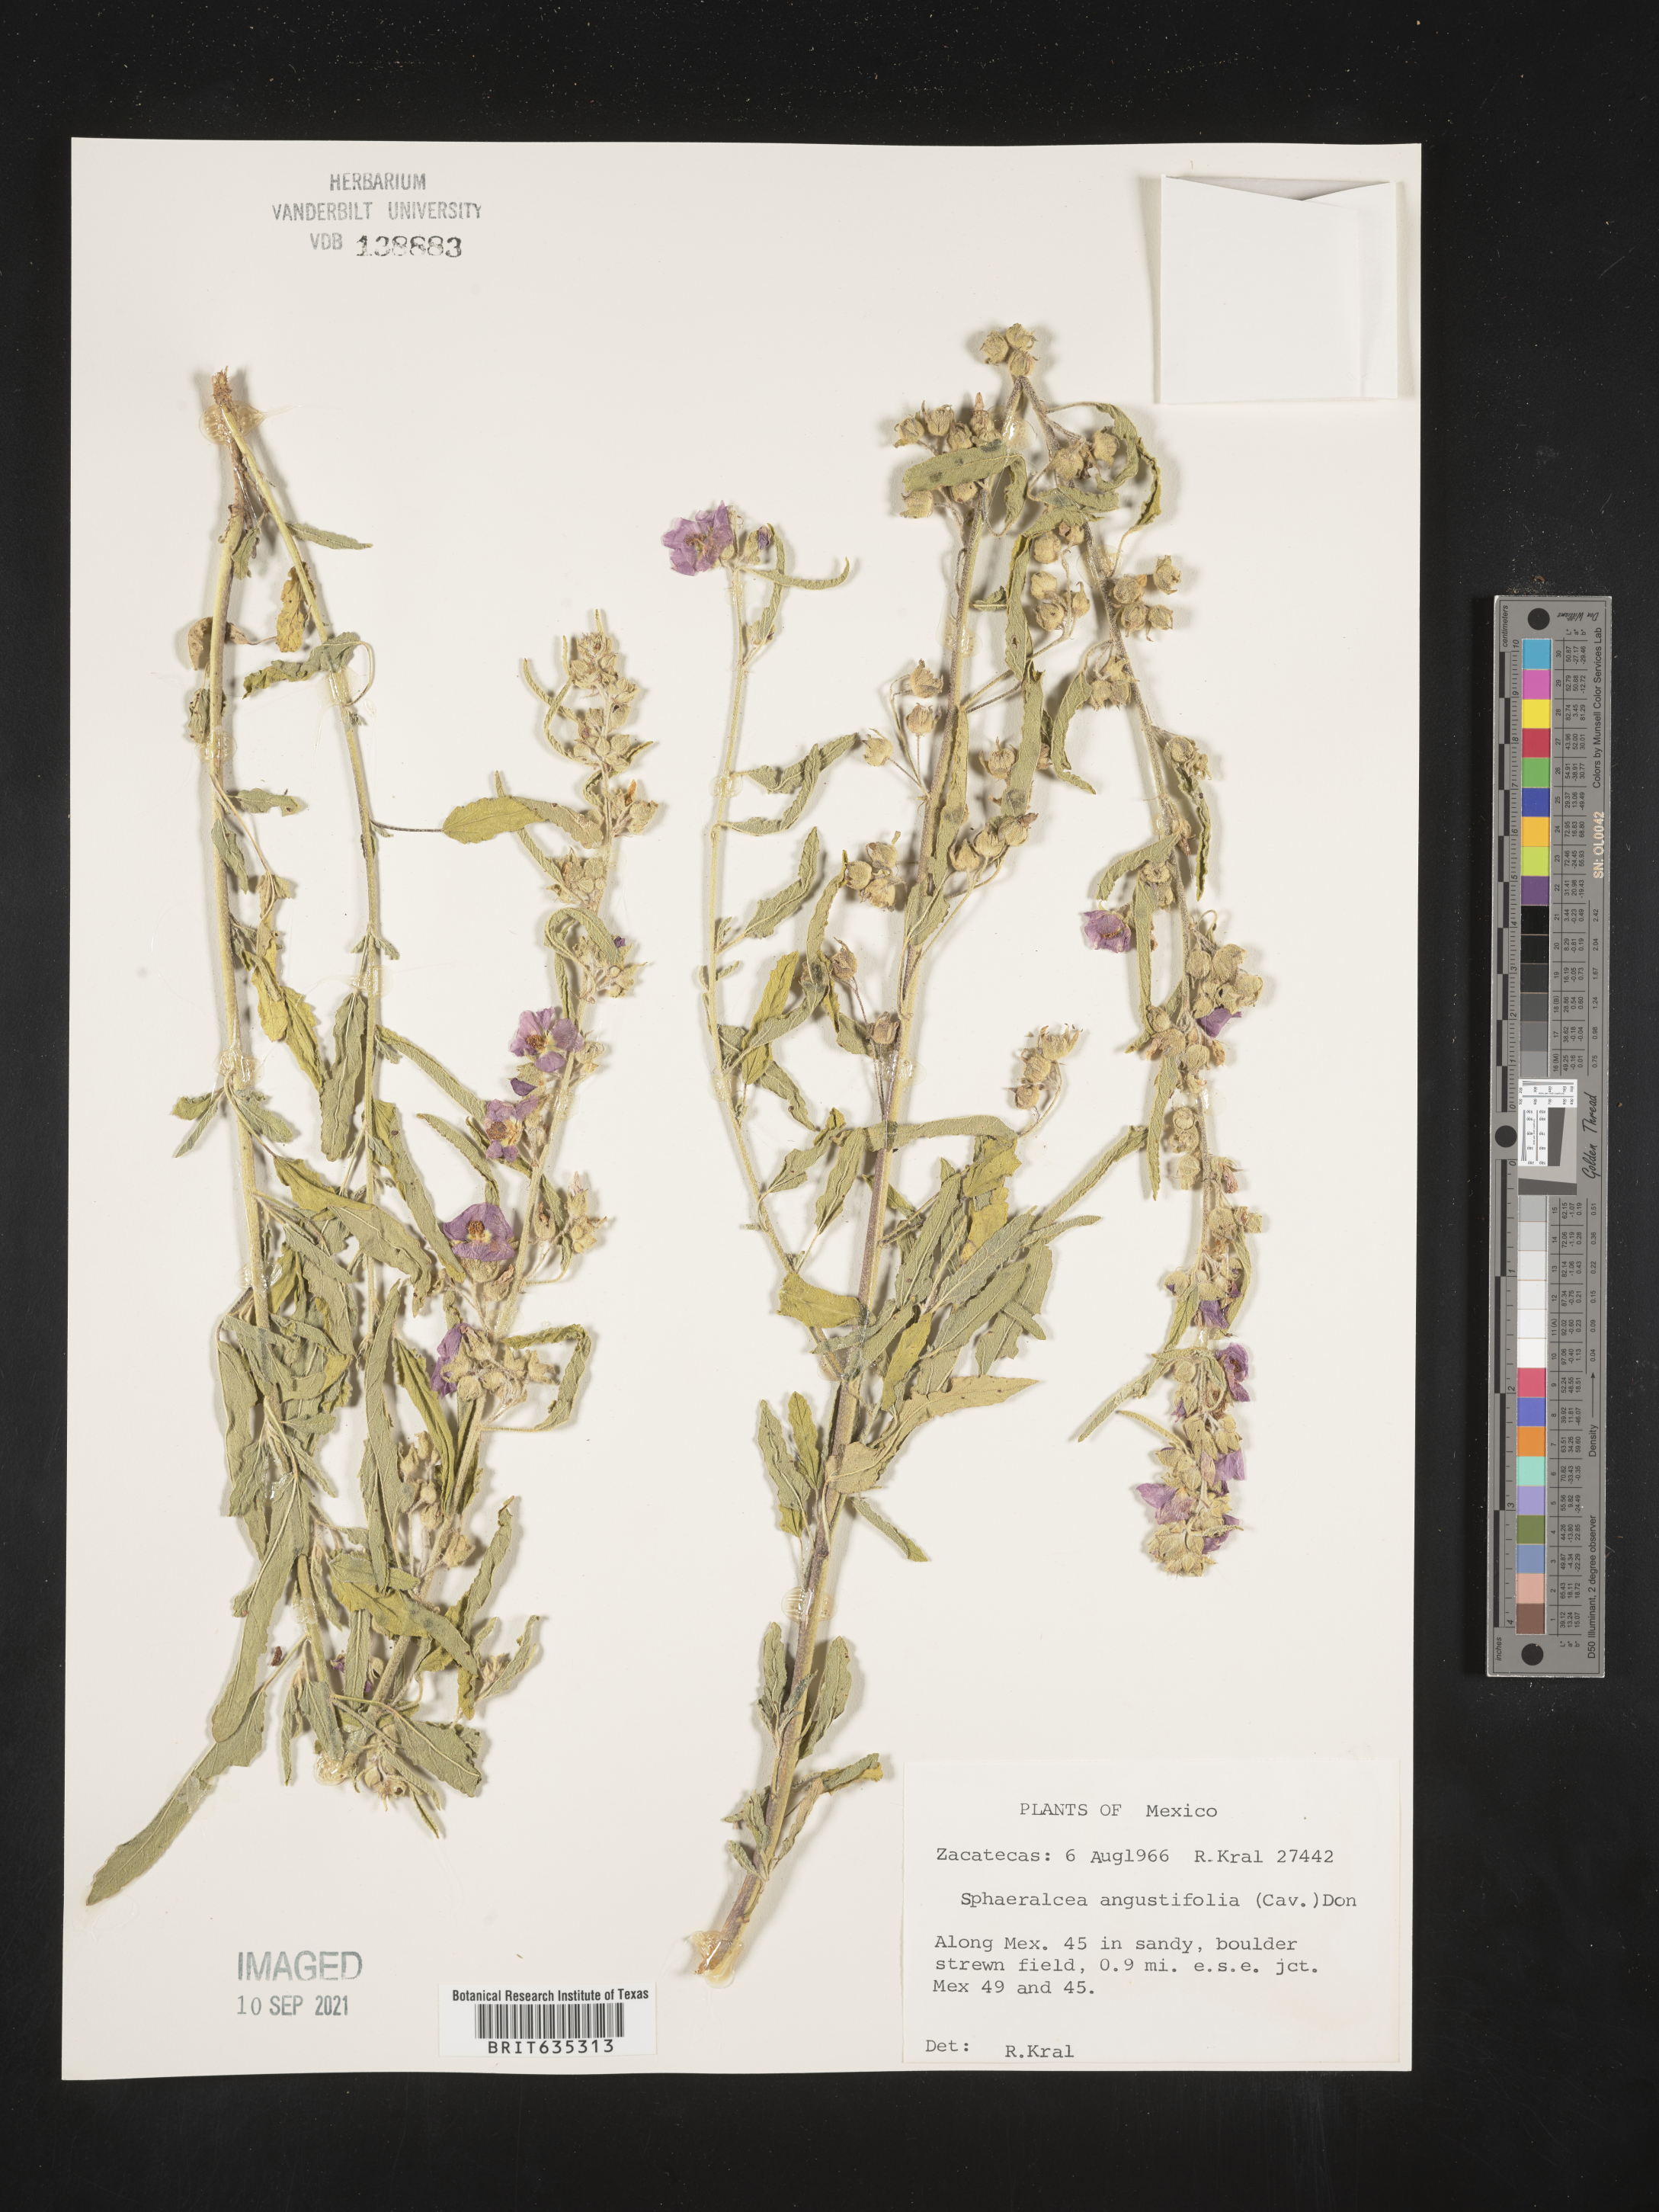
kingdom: Plantae
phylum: Tracheophyta
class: Magnoliopsida
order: Malvales
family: Malvaceae
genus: Sphaeralcea
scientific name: Sphaeralcea
